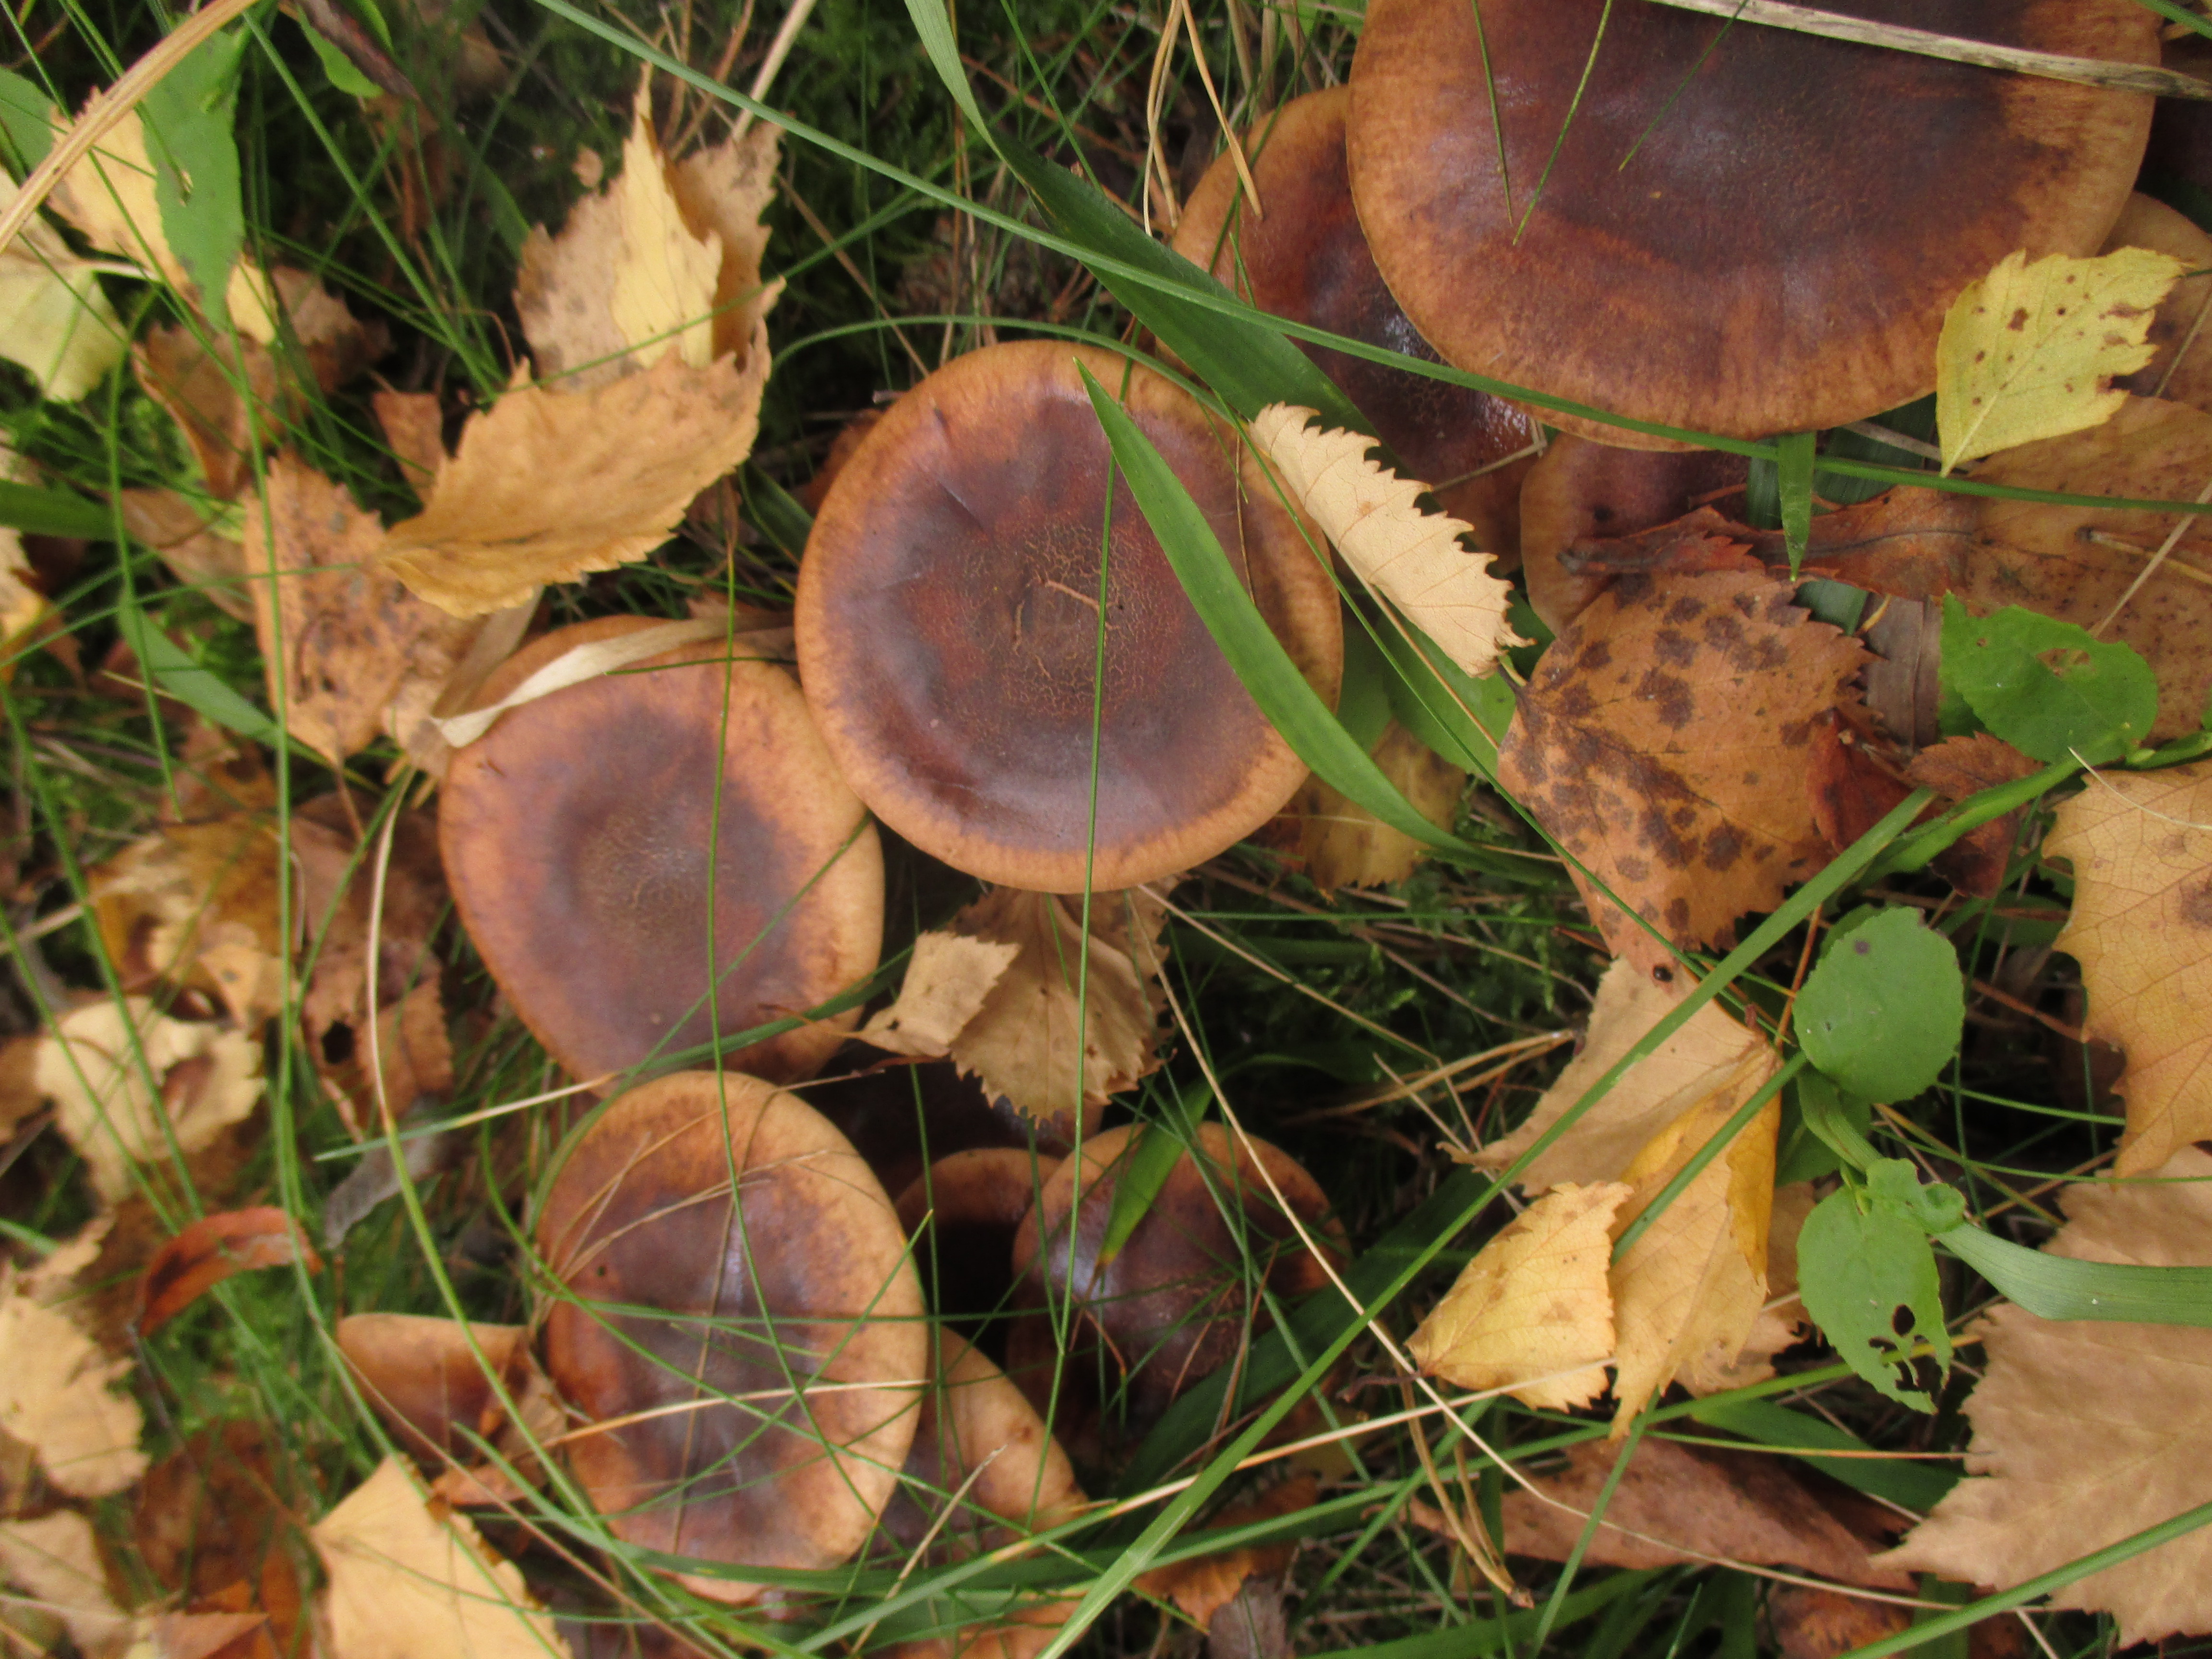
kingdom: Fungi
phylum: Basidiomycota
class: Agaricomycetes
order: Agaricales
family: Tricholomataceae
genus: Tricholoma
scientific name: Tricholoma fulvum
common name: Birch knight
